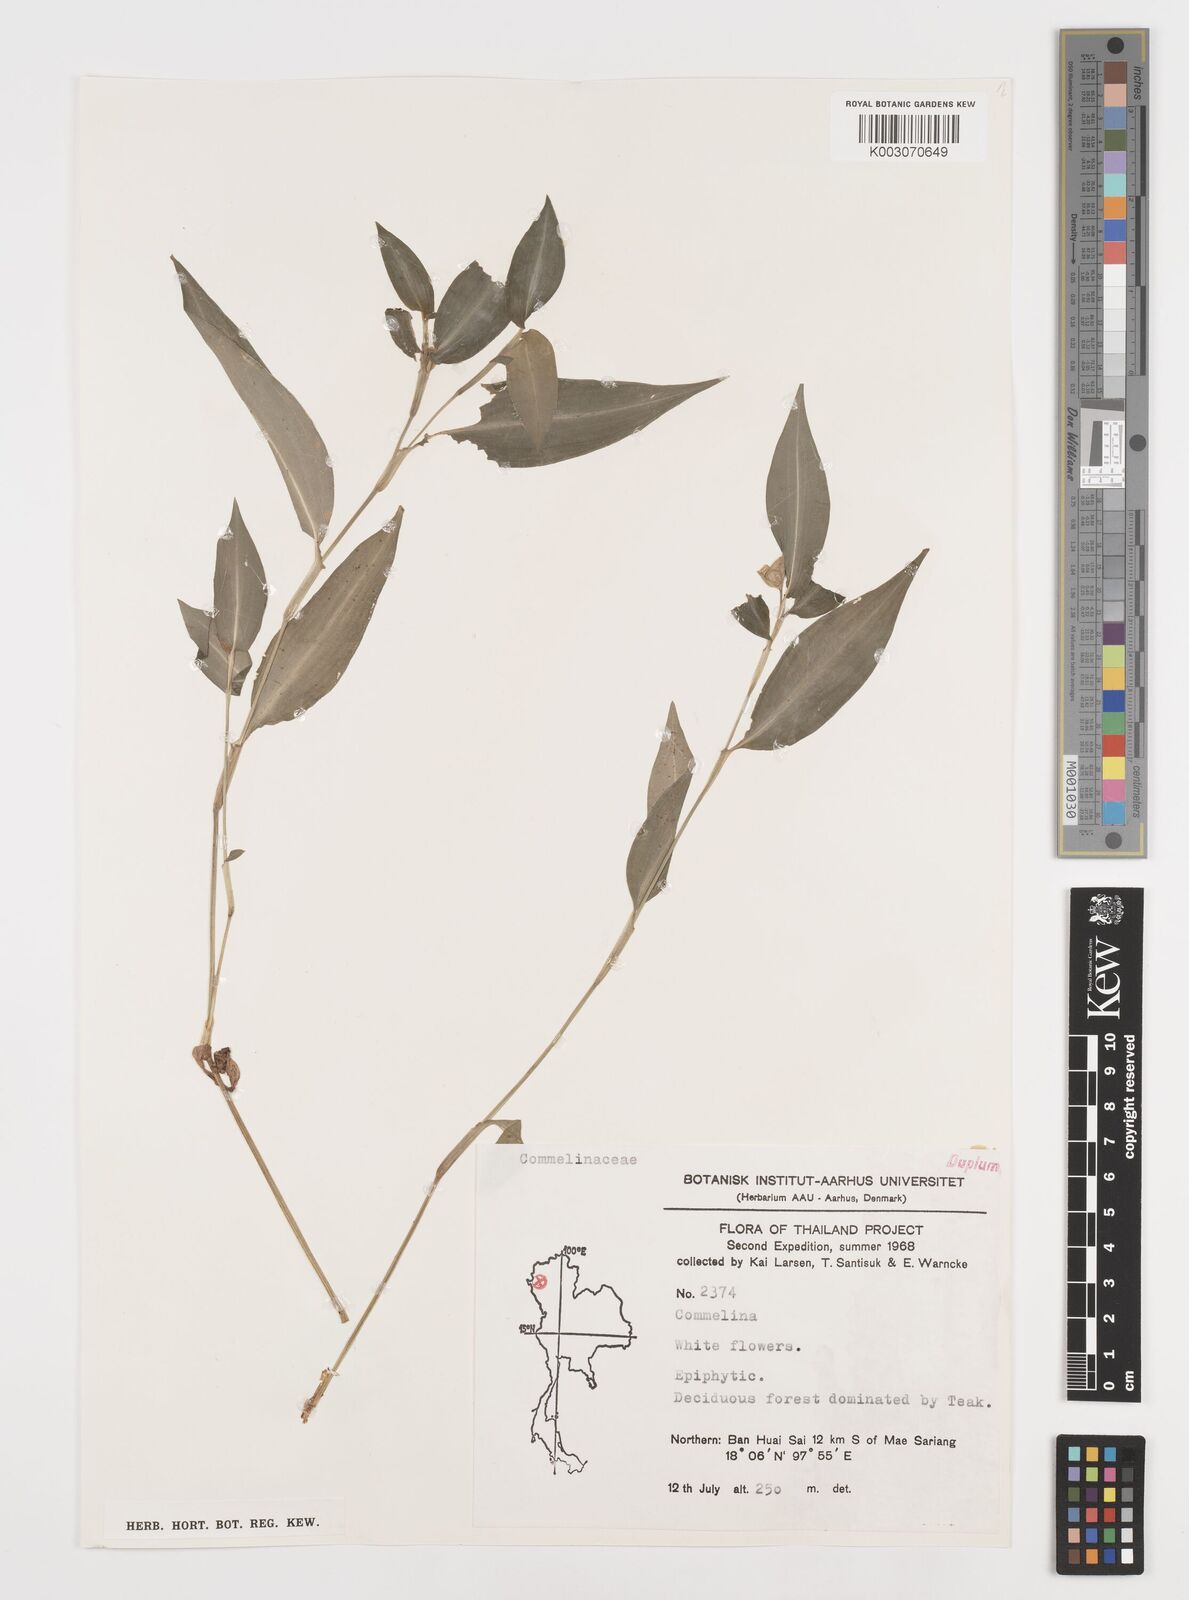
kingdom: Plantae
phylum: Tracheophyta
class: Liliopsida
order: Commelinales
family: Commelinaceae
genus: Commelina
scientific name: Commelina
